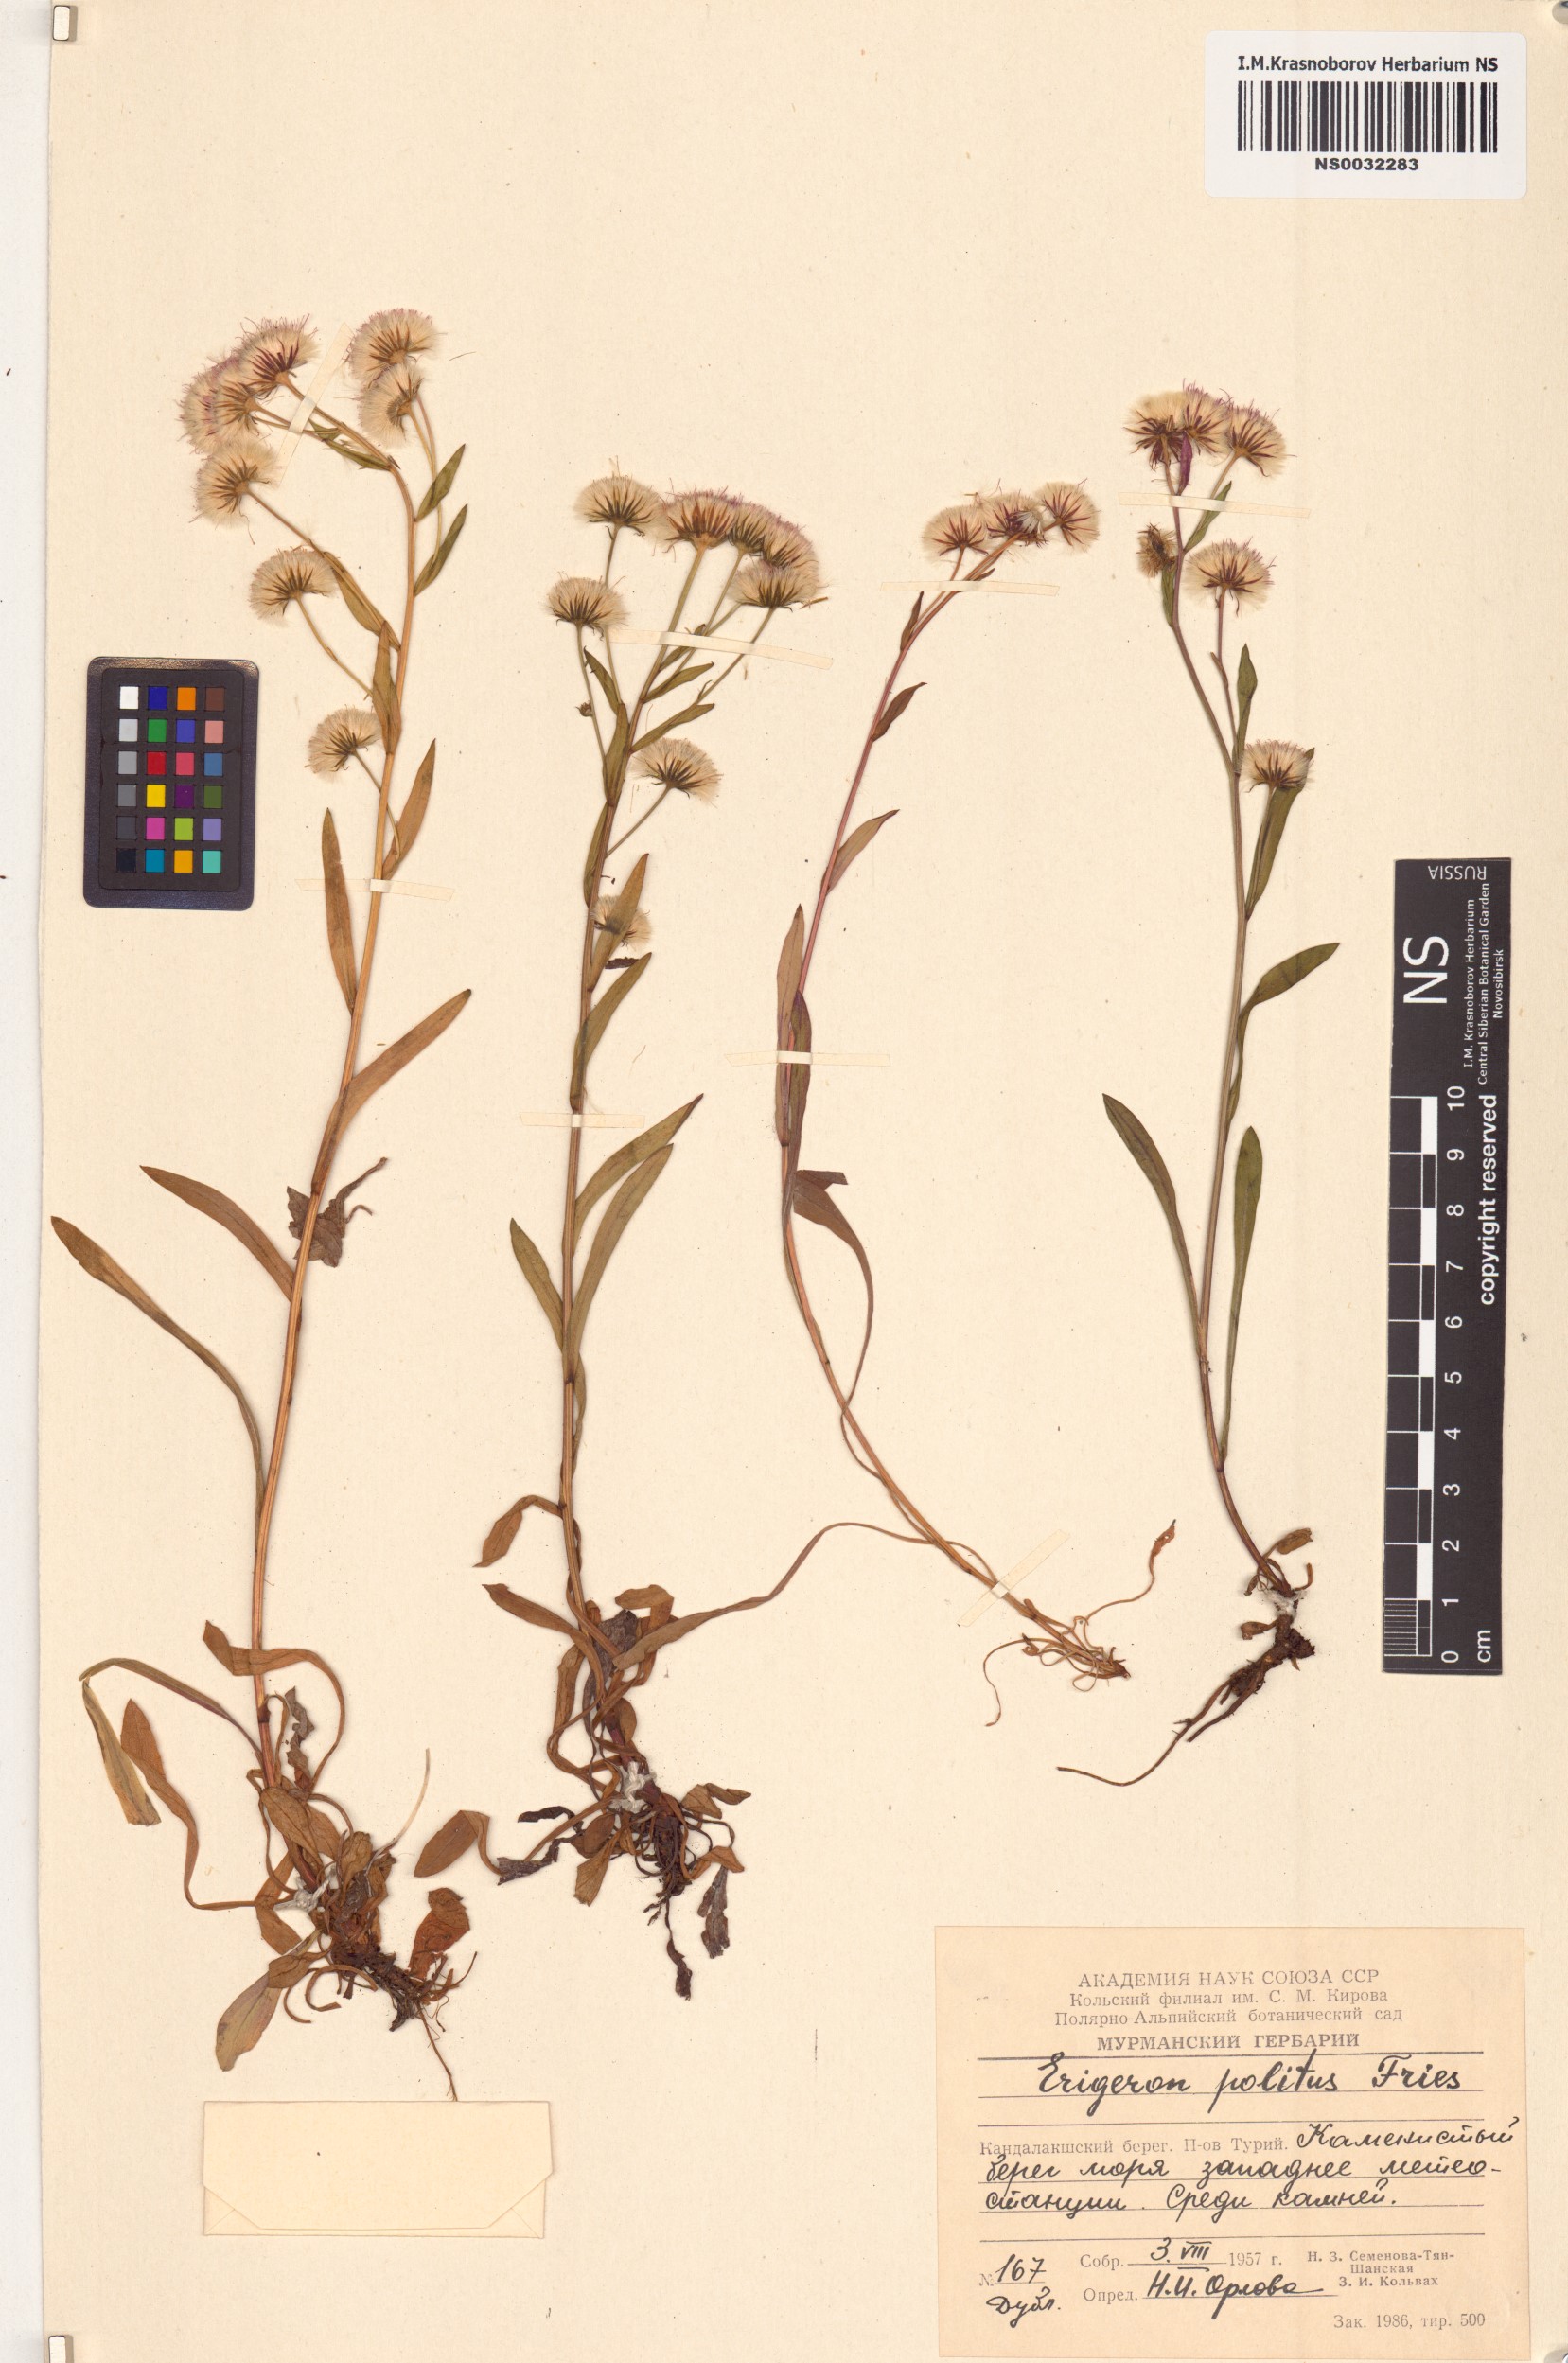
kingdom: Plantae
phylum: Tracheophyta
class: Magnoliopsida
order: Asterales
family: Asteraceae
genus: Erigeron
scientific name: Erigeron politus
